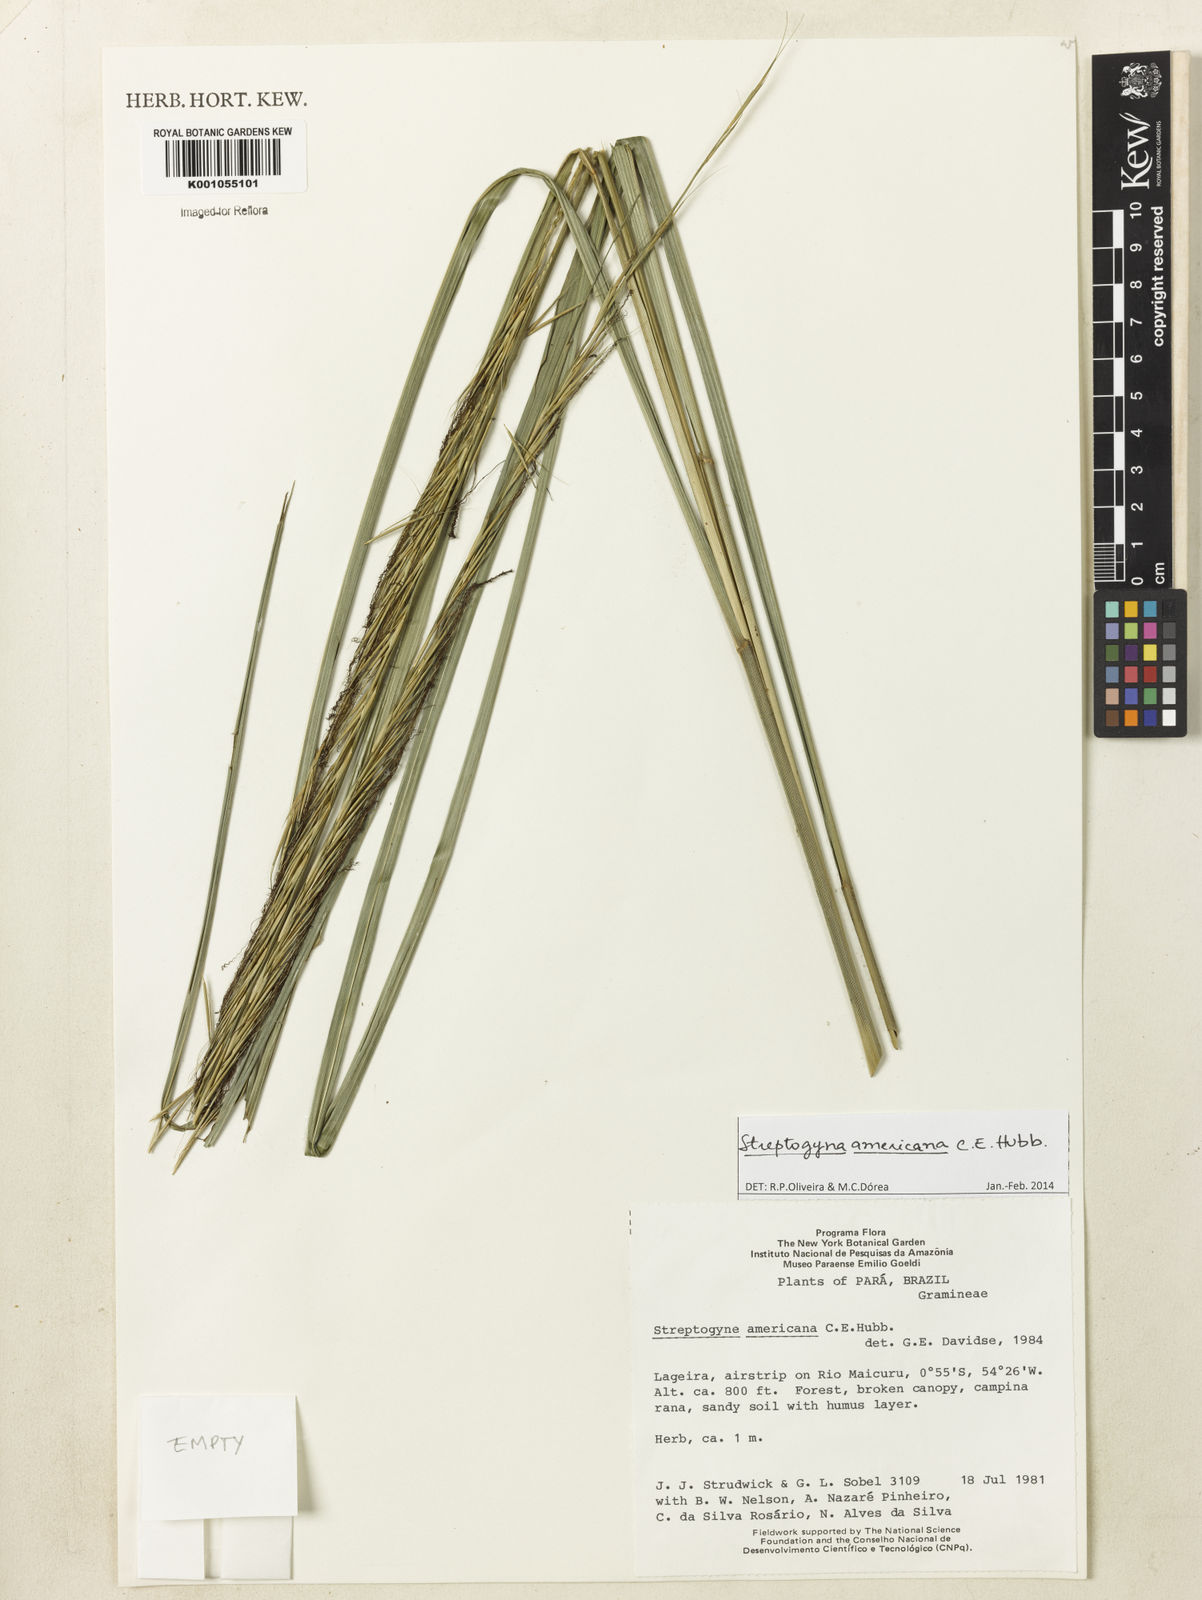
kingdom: Plantae
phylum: Tracheophyta
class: Liliopsida
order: Poales
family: Poaceae
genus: Streptogyna
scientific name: Streptogyna americana
